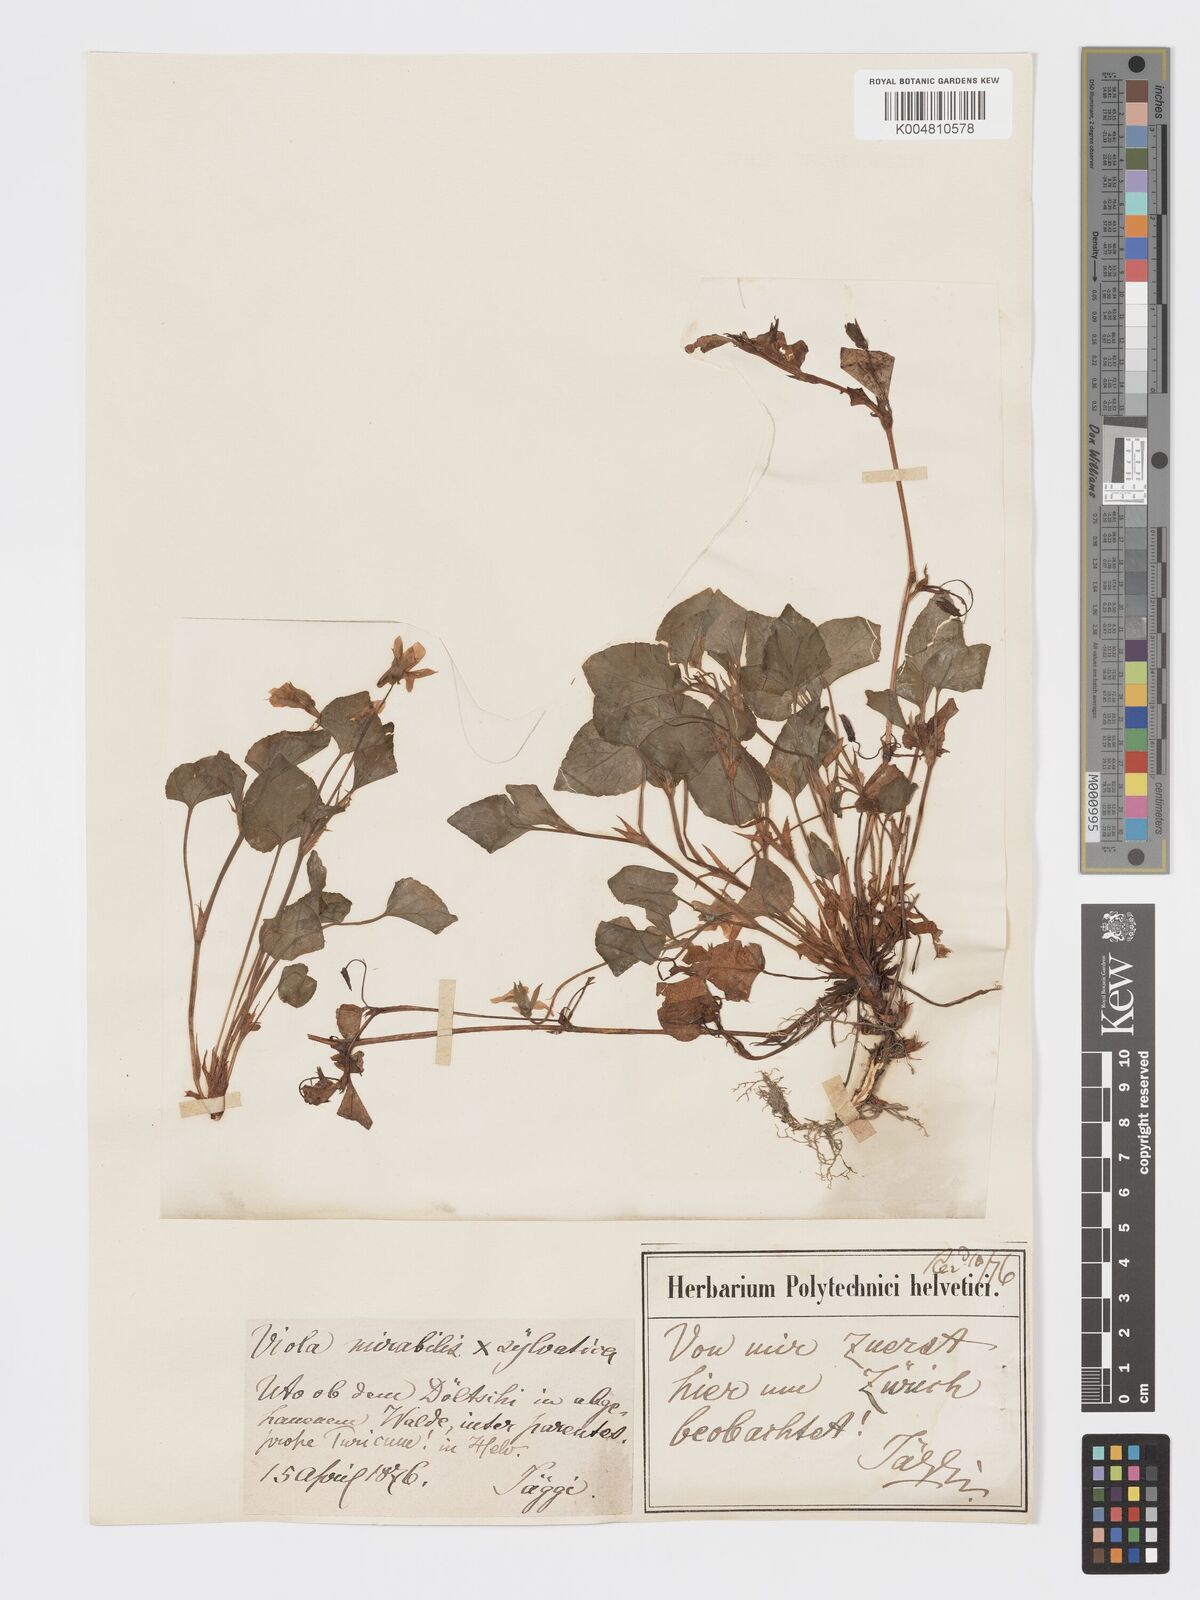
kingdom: Plantae
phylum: Tracheophyta
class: Magnoliopsida
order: Malpighiales
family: Violaceae
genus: Viola
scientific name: Viola mirabilis
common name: Wonder violet
